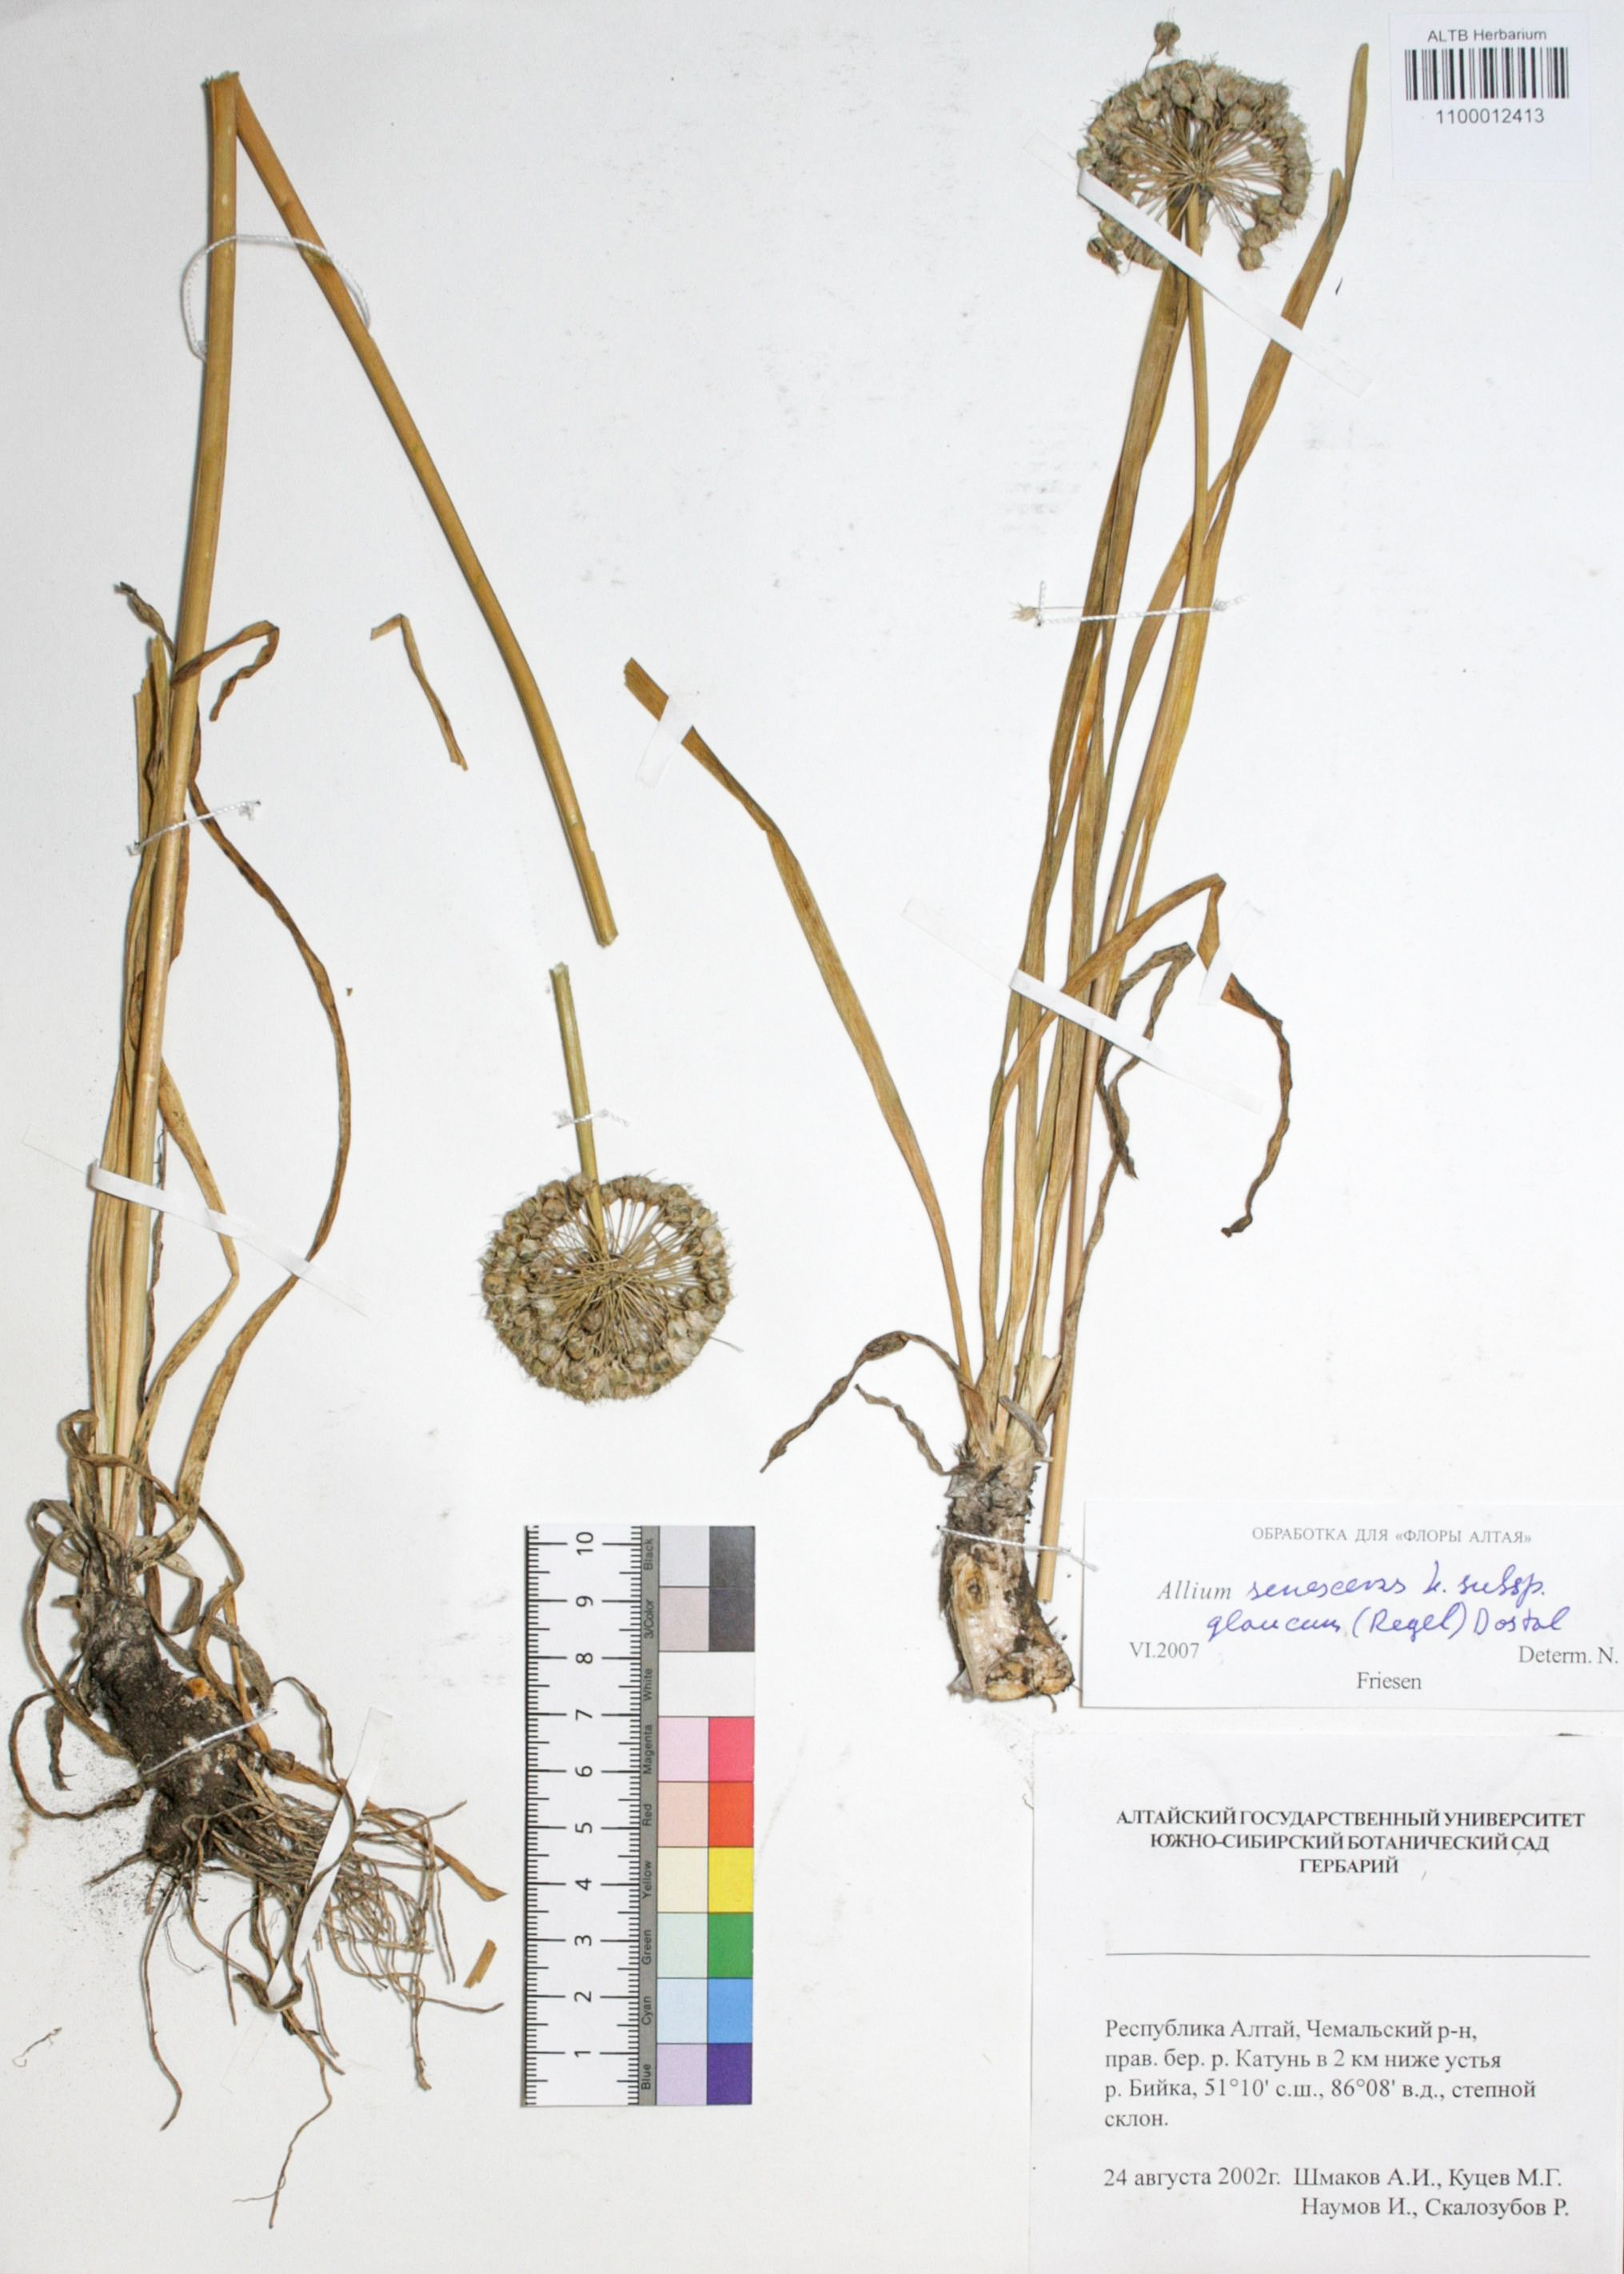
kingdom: Plantae
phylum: Tracheophyta
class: Liliopsida
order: Asparagales
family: Amaryllidaceae
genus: Allium
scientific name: Allium senescens
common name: German garlic
